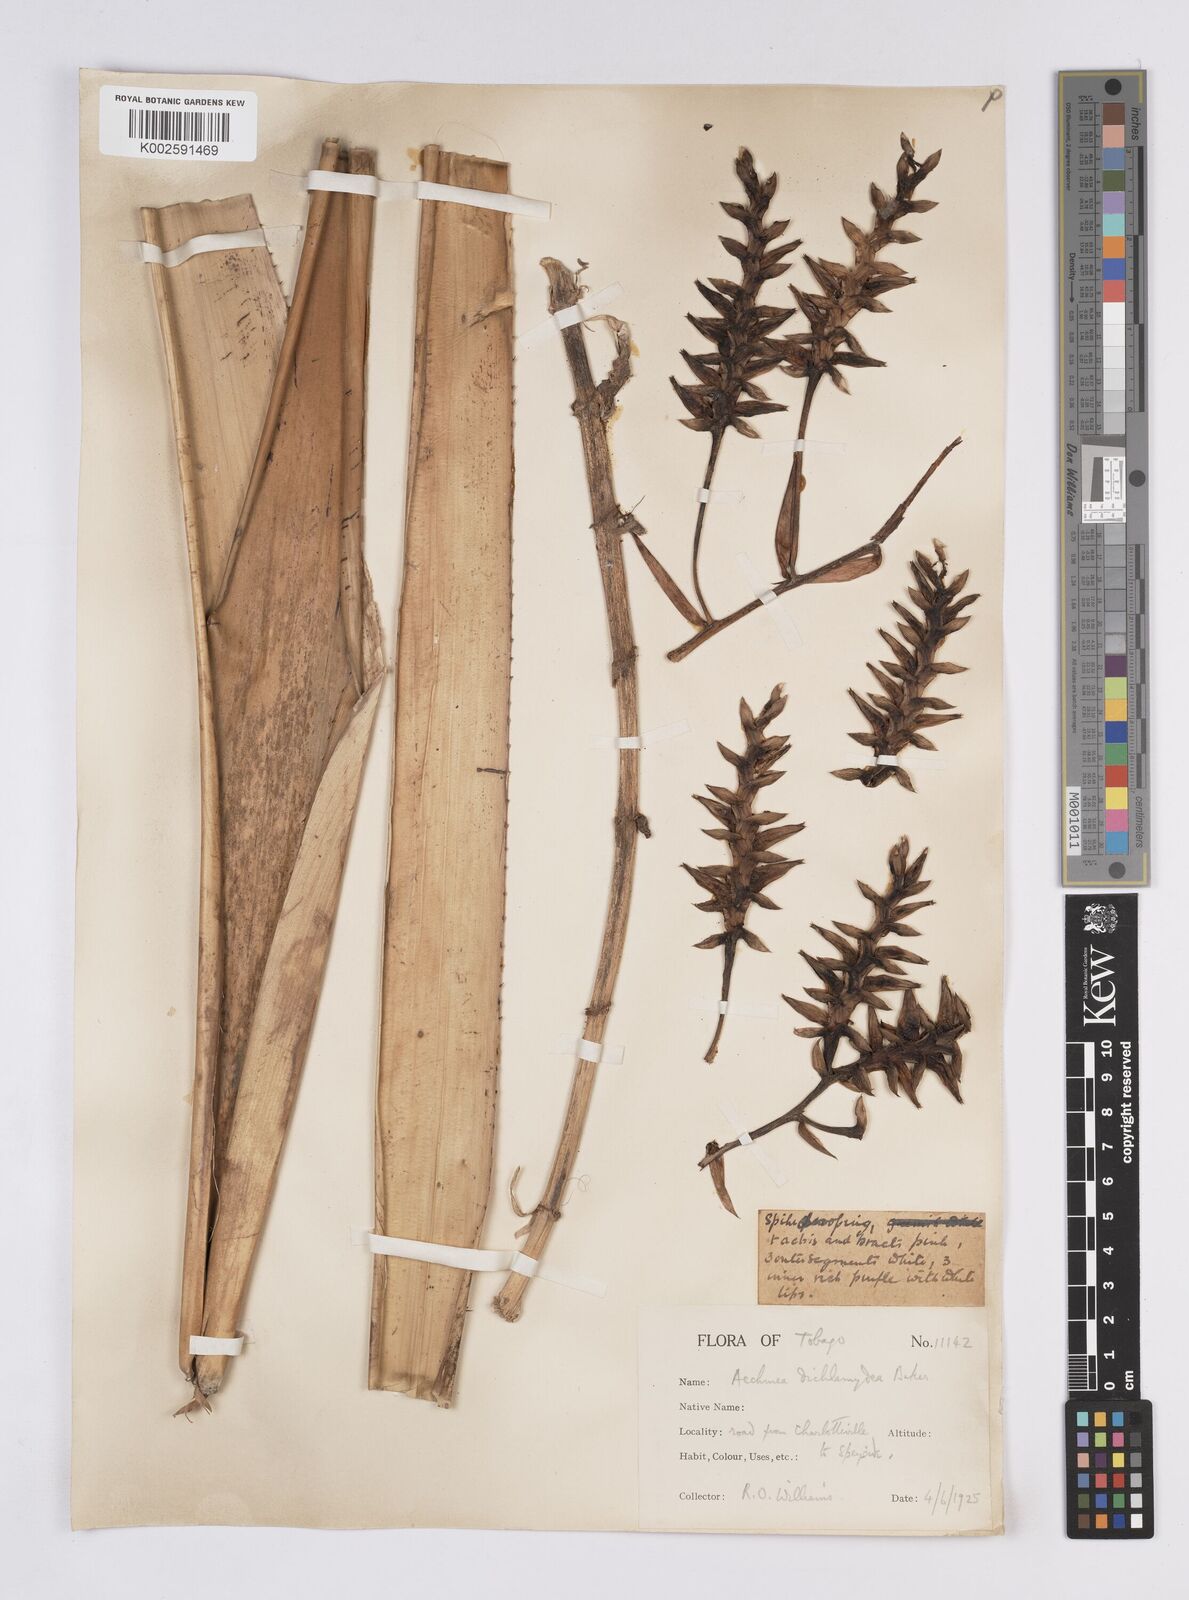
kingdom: Plantae
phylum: Tracheophyta
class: Liliopsida
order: Poales
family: Bromeliaceae
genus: Aechmea
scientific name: Aechmea dichlamydea
